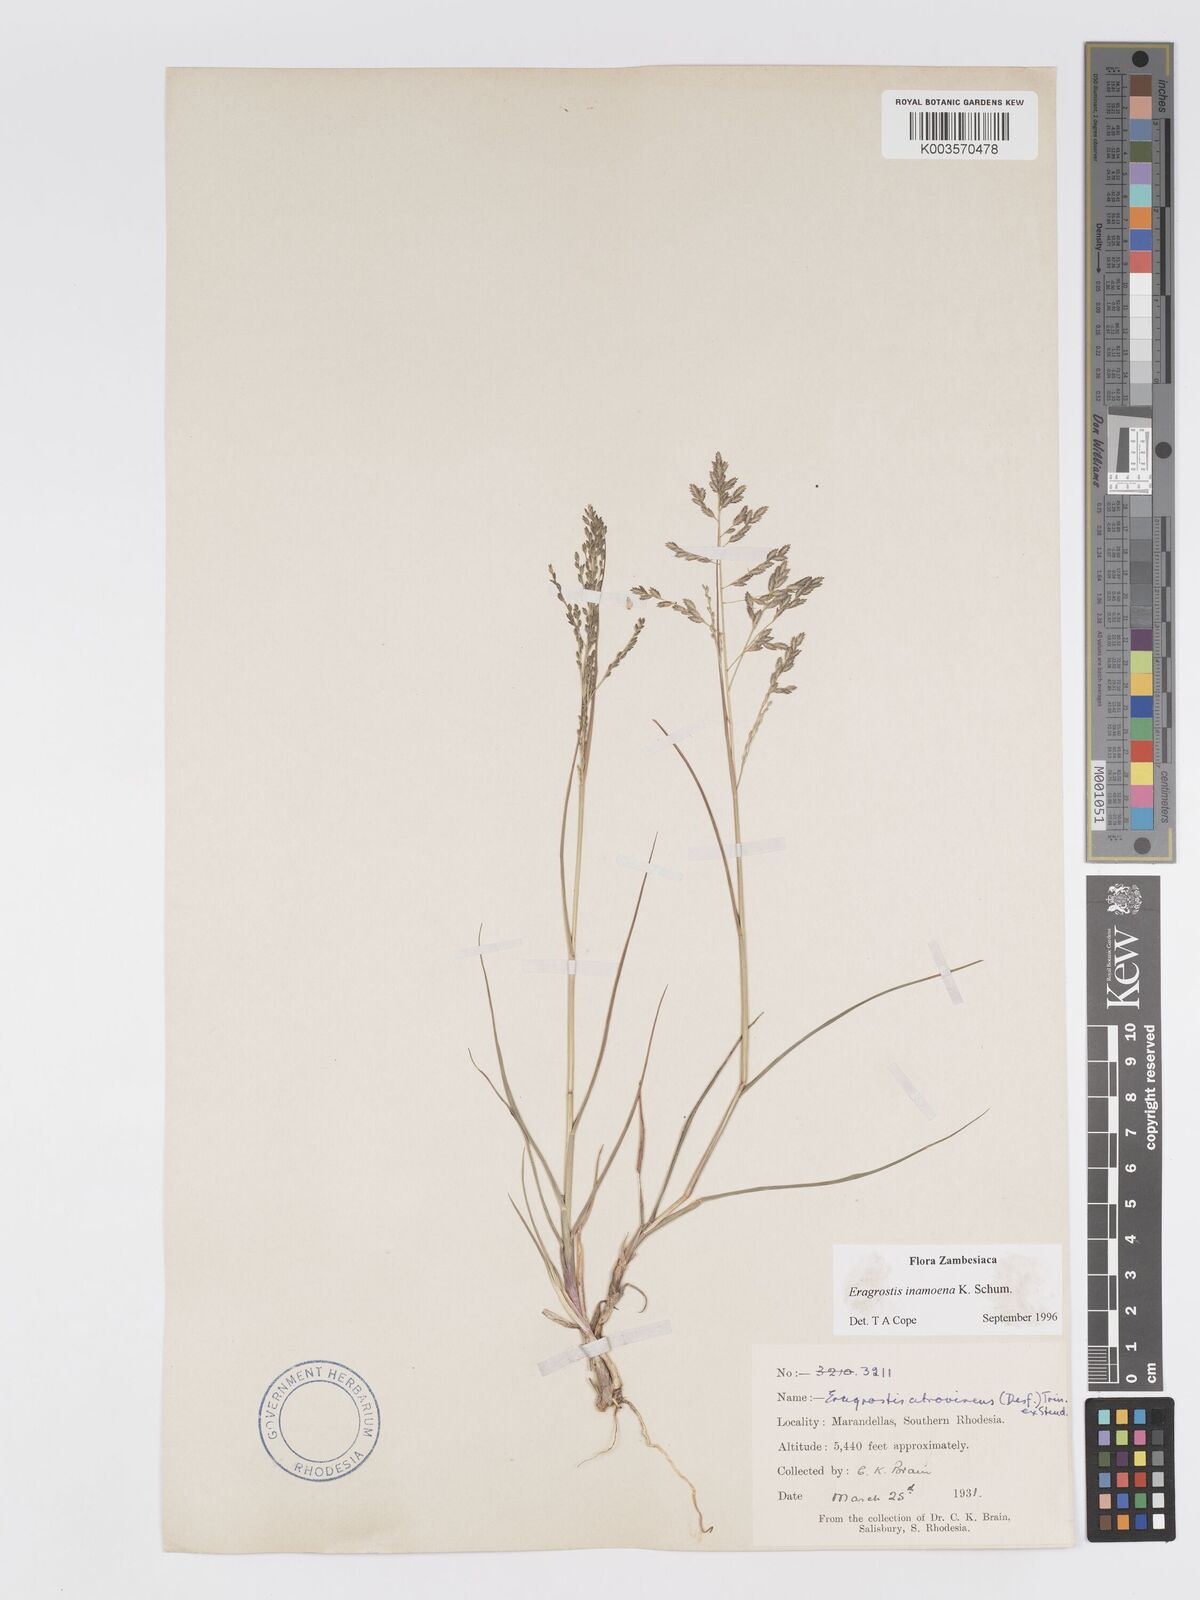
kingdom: Plantae
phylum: Tracheophyta
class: Liliopsida
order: Poales
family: Poaceae
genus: Eragrostis
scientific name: Eragrostis inamoena
